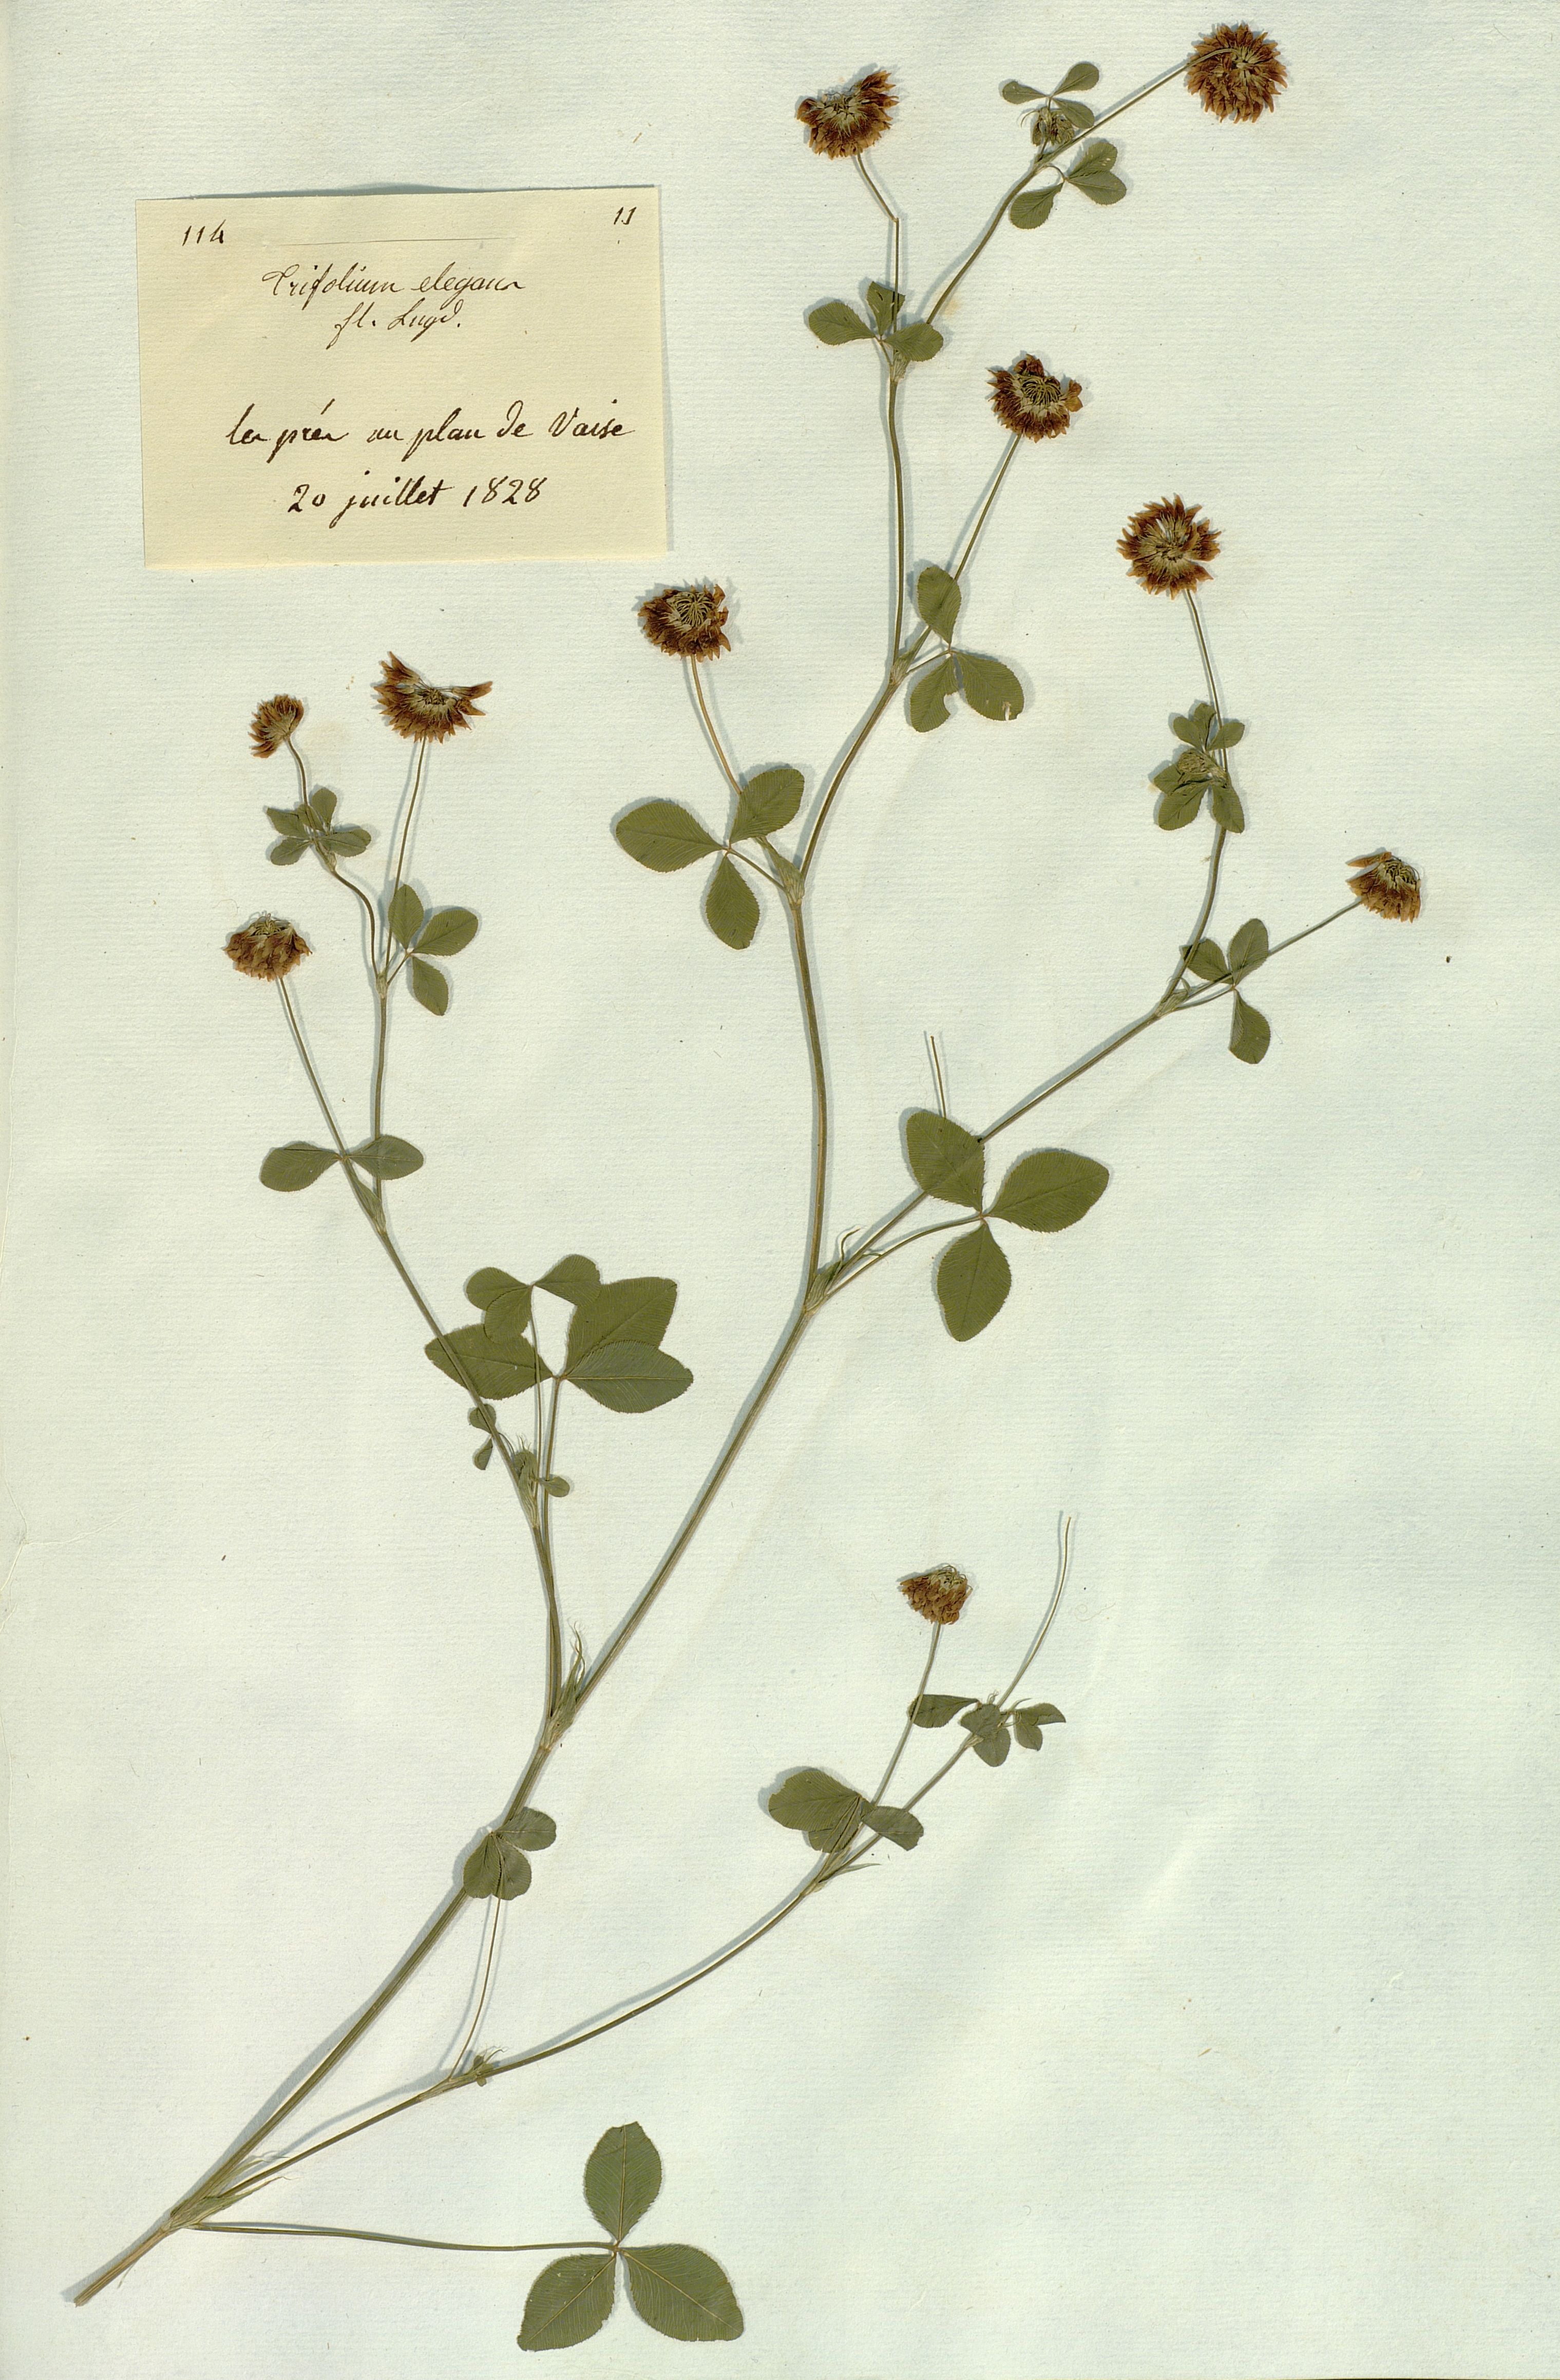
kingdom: Plantae
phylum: Tracheophyta
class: Magnoliopsida
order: Fabales
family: Fabaceae
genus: Trifolium
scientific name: Trifolium hybridum
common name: Alsike clover
